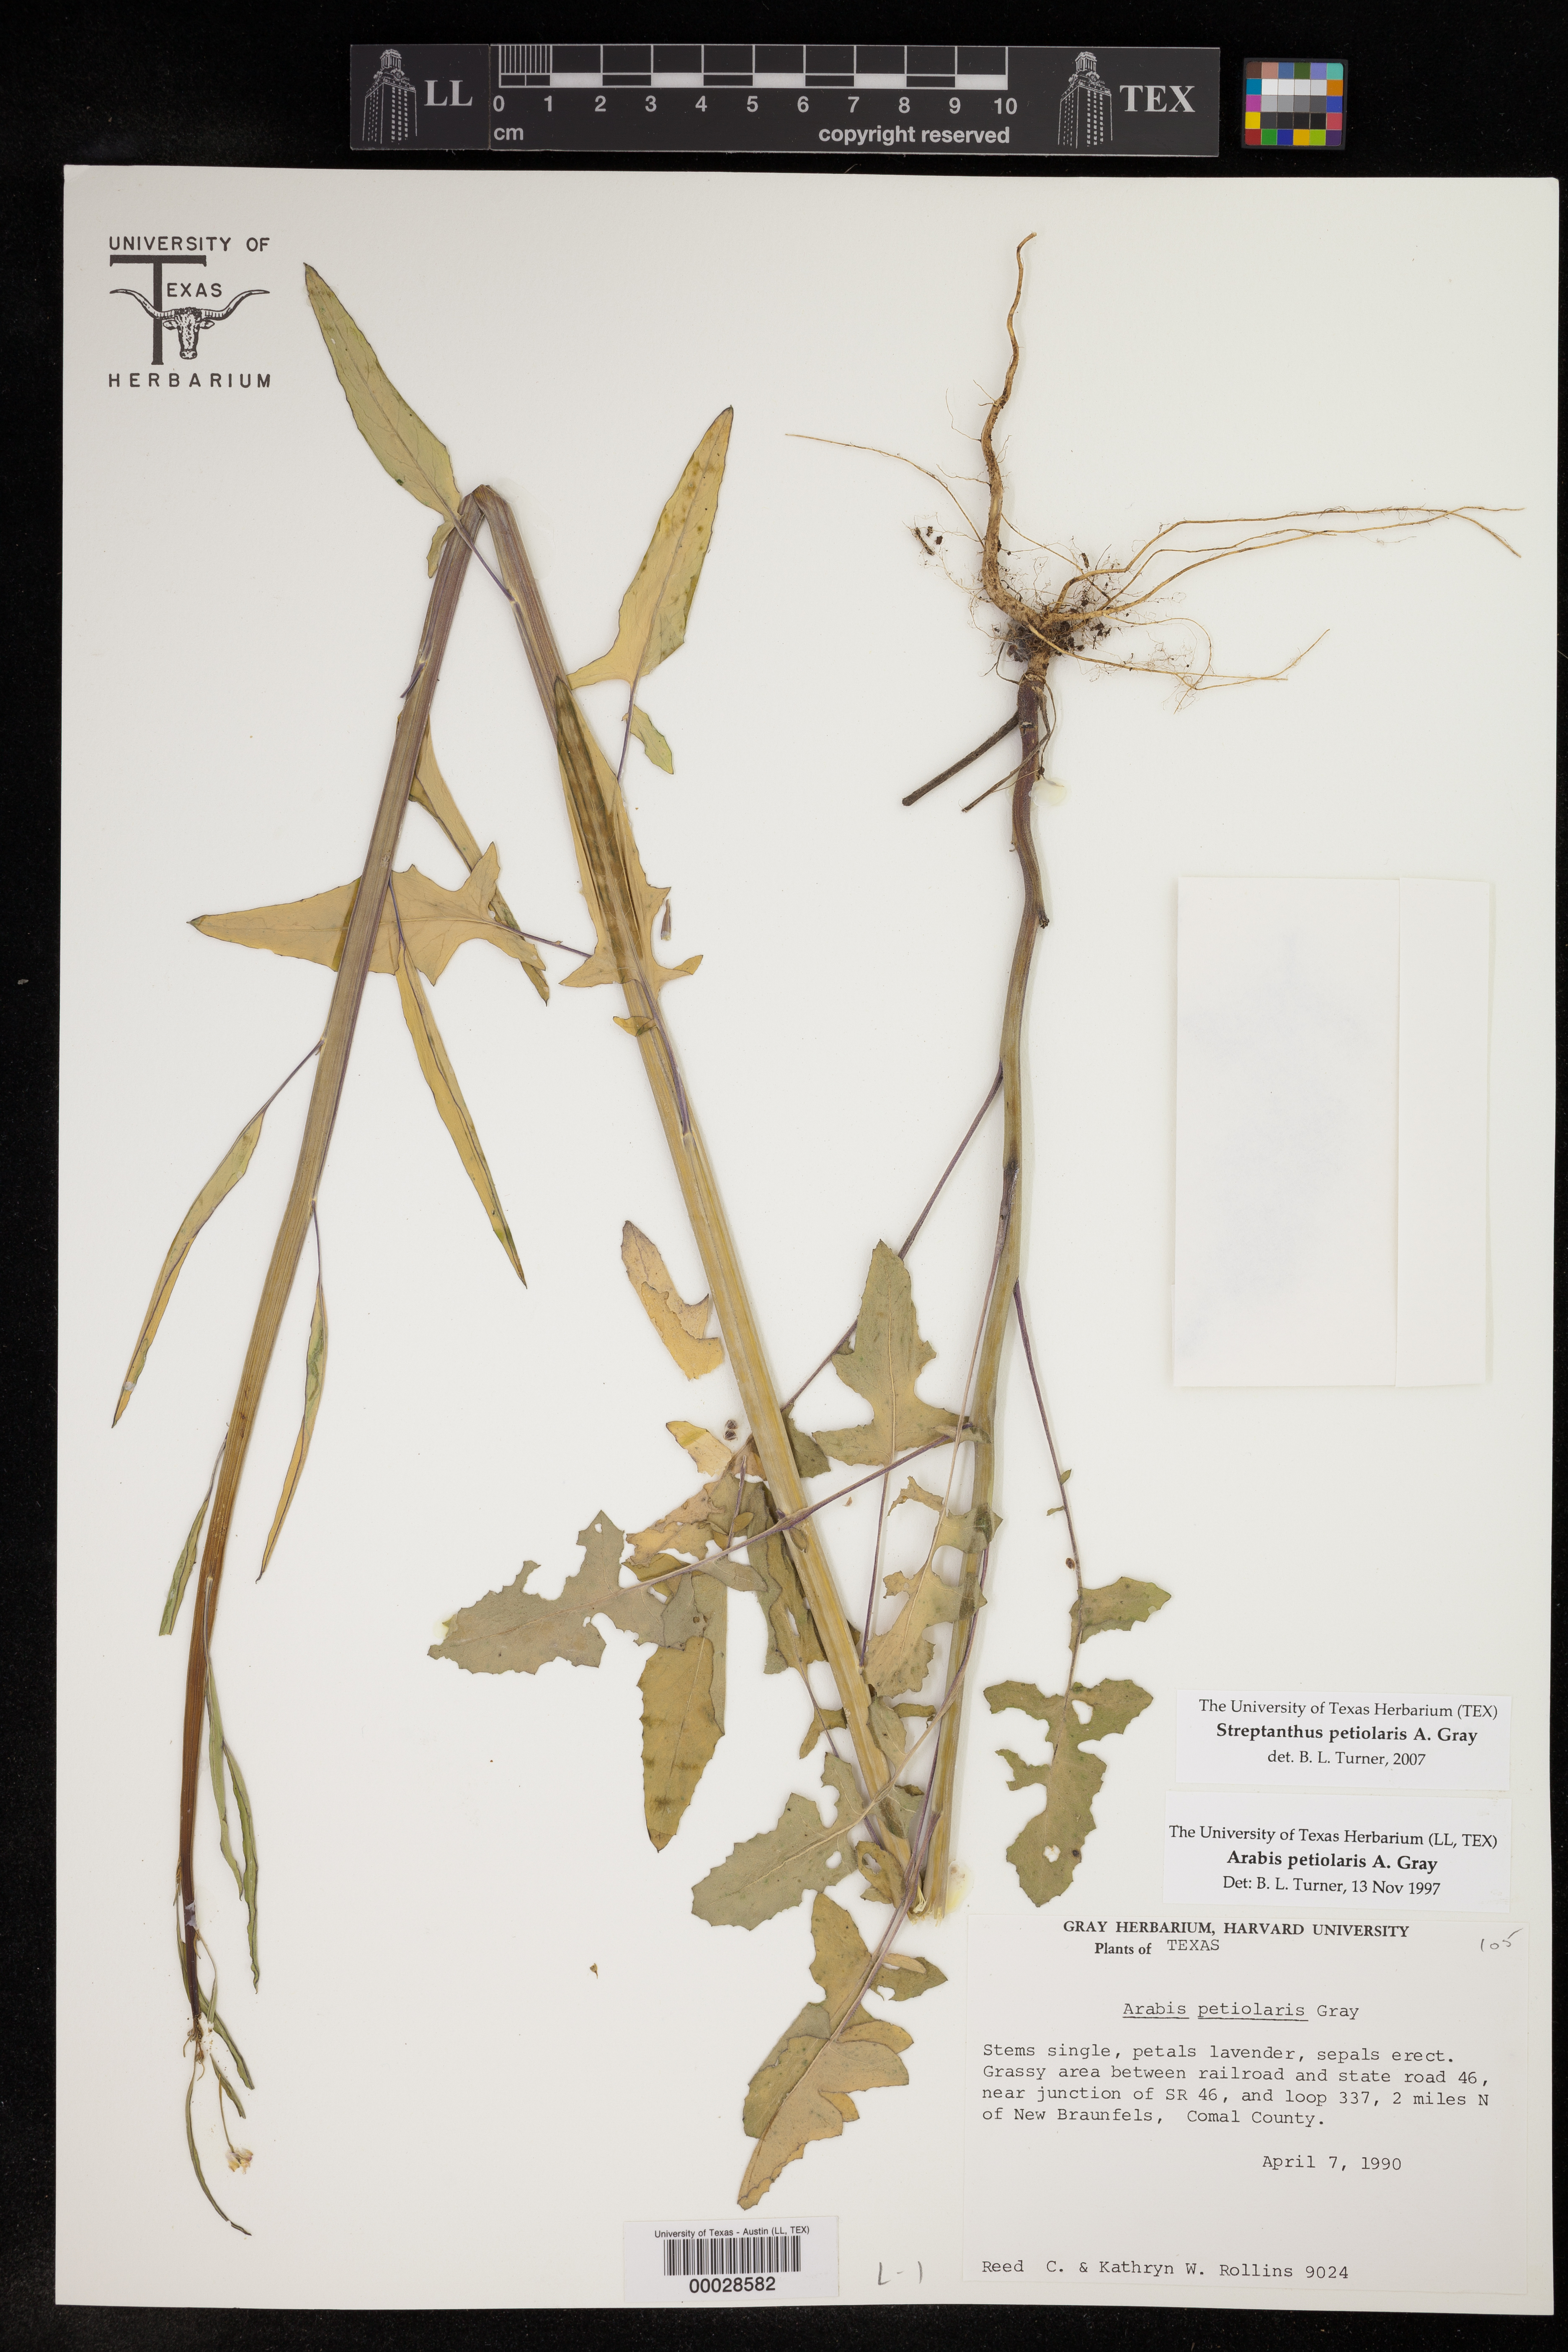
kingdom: Plantae
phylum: Tracheophyta
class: Magnoliopsida
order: Brassicales
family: Brassicaceae
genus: Streptanthus
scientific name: Streptanthus petiolaris
